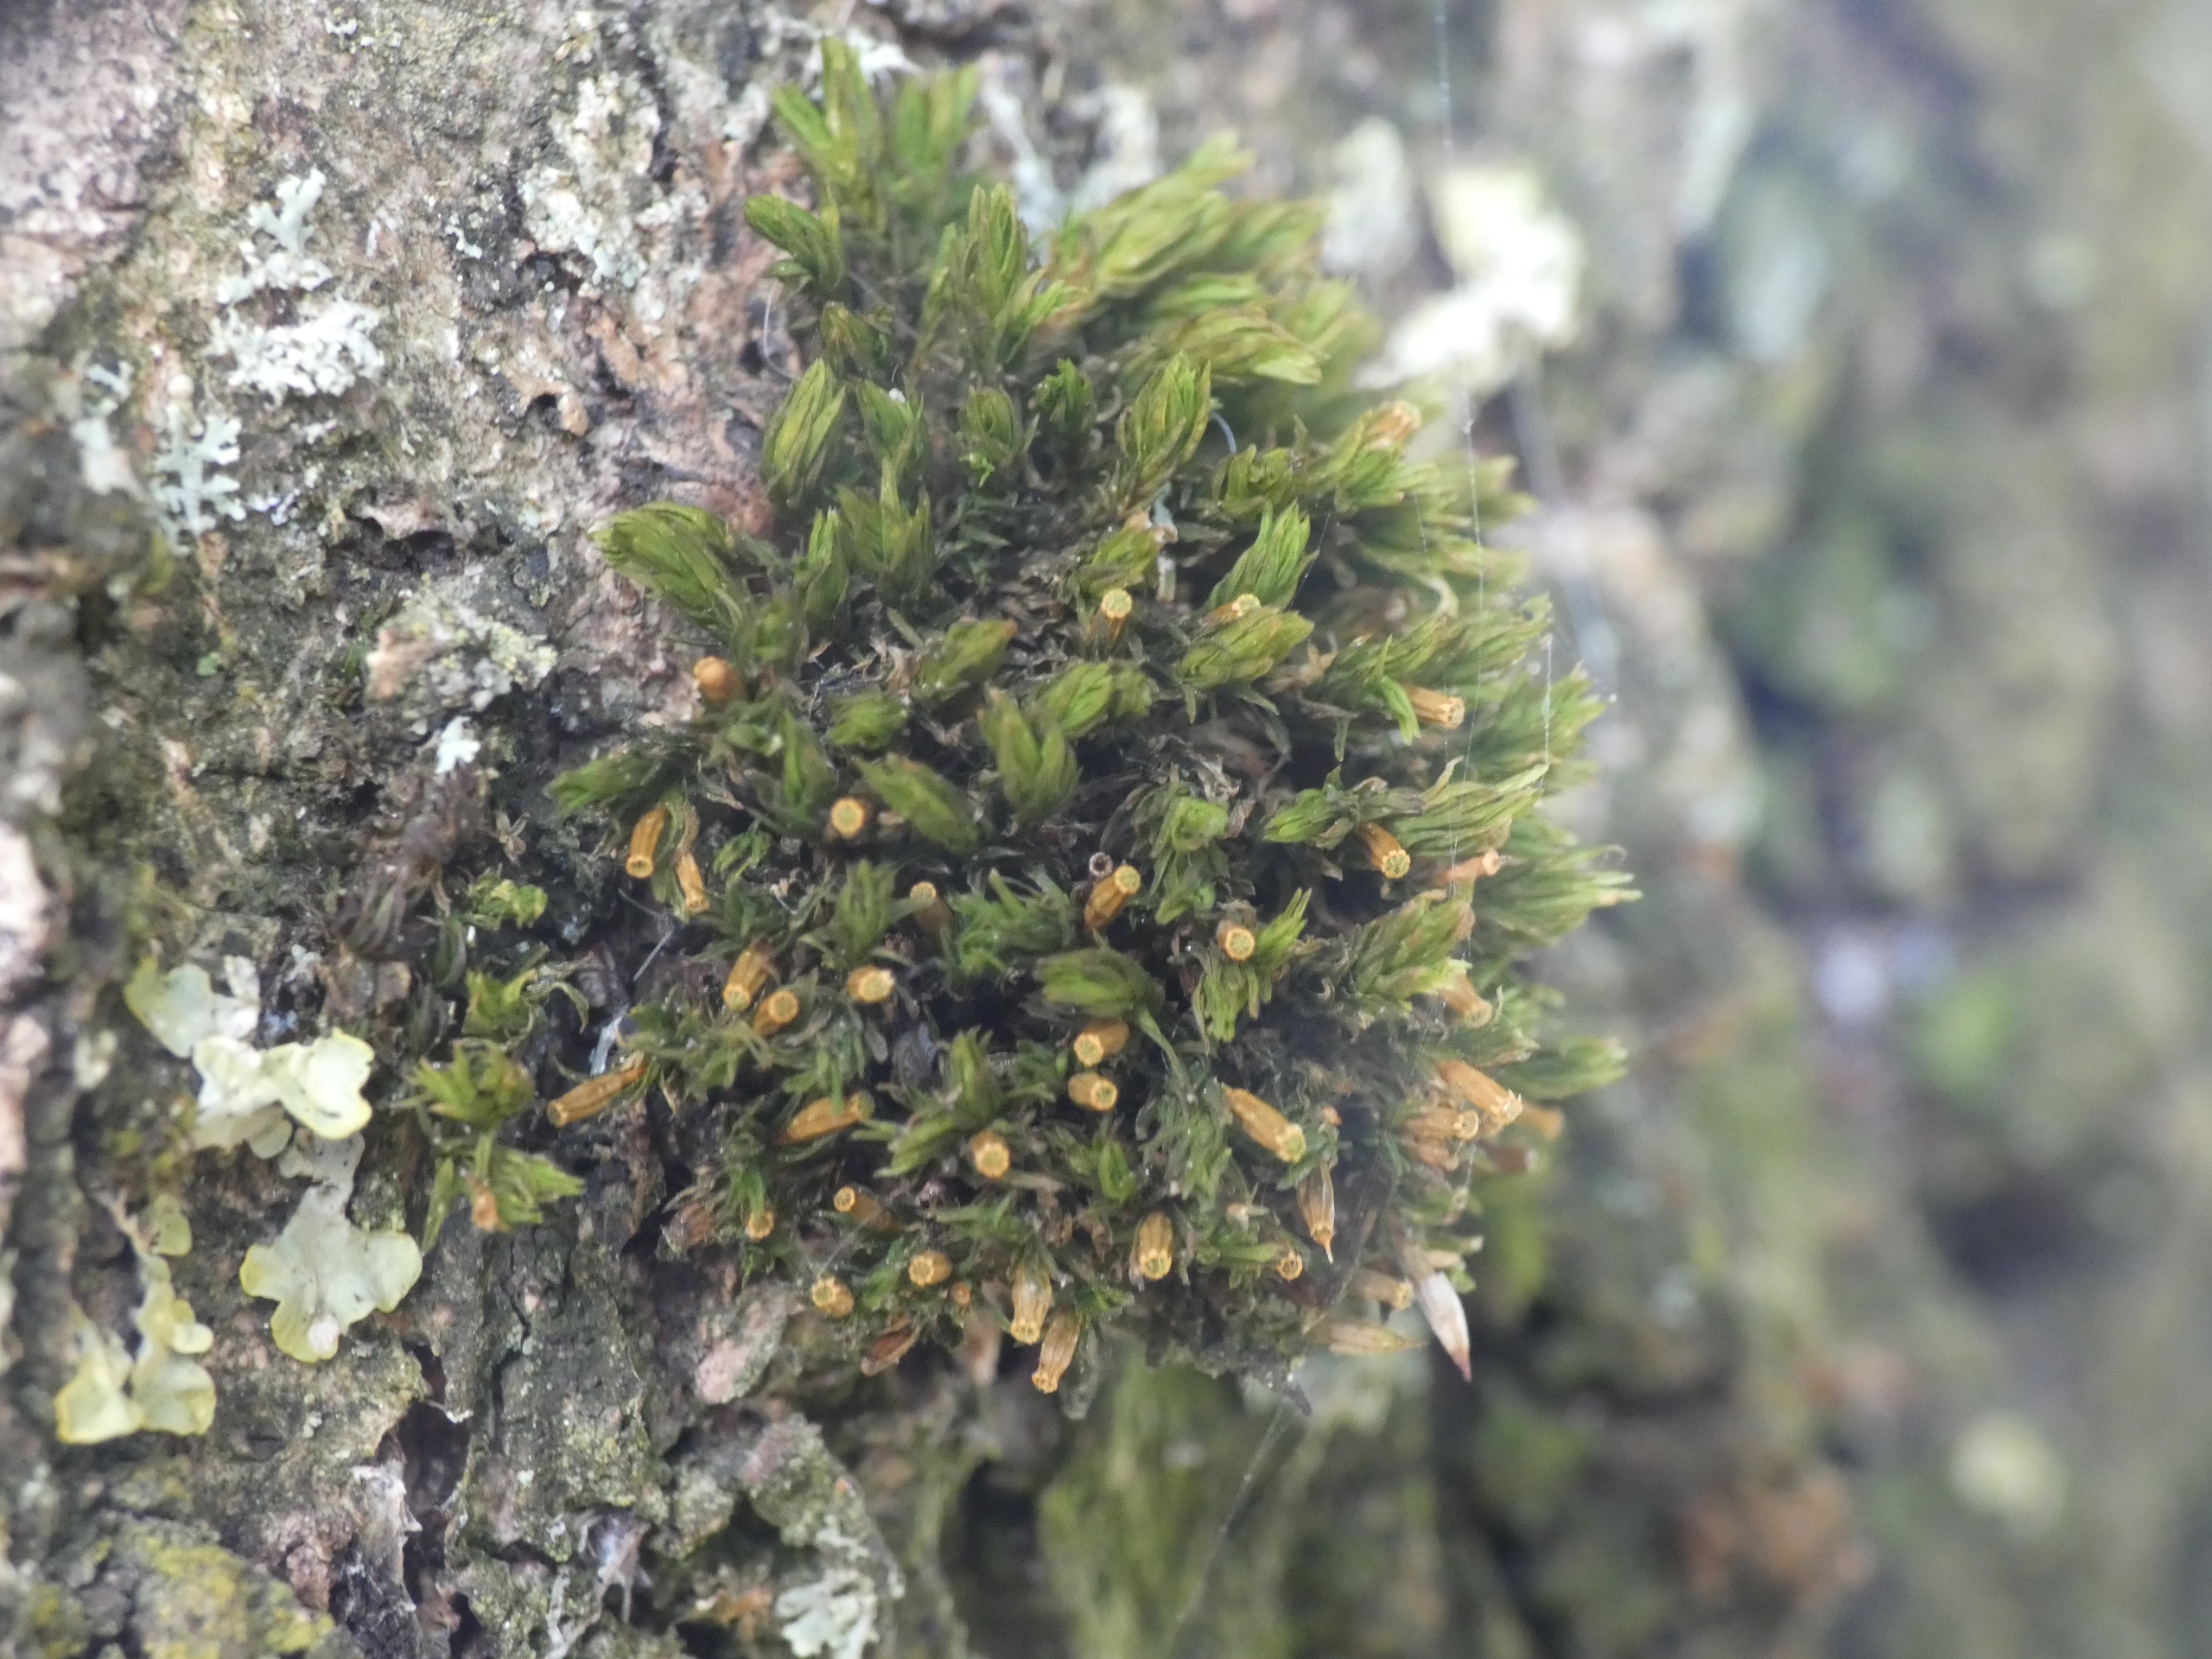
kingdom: Plantae
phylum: Bryophyta
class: Bryopsida
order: Orthotrichales
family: Orthotrichaceae
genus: Orthotrichum
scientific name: Orthotrichum
